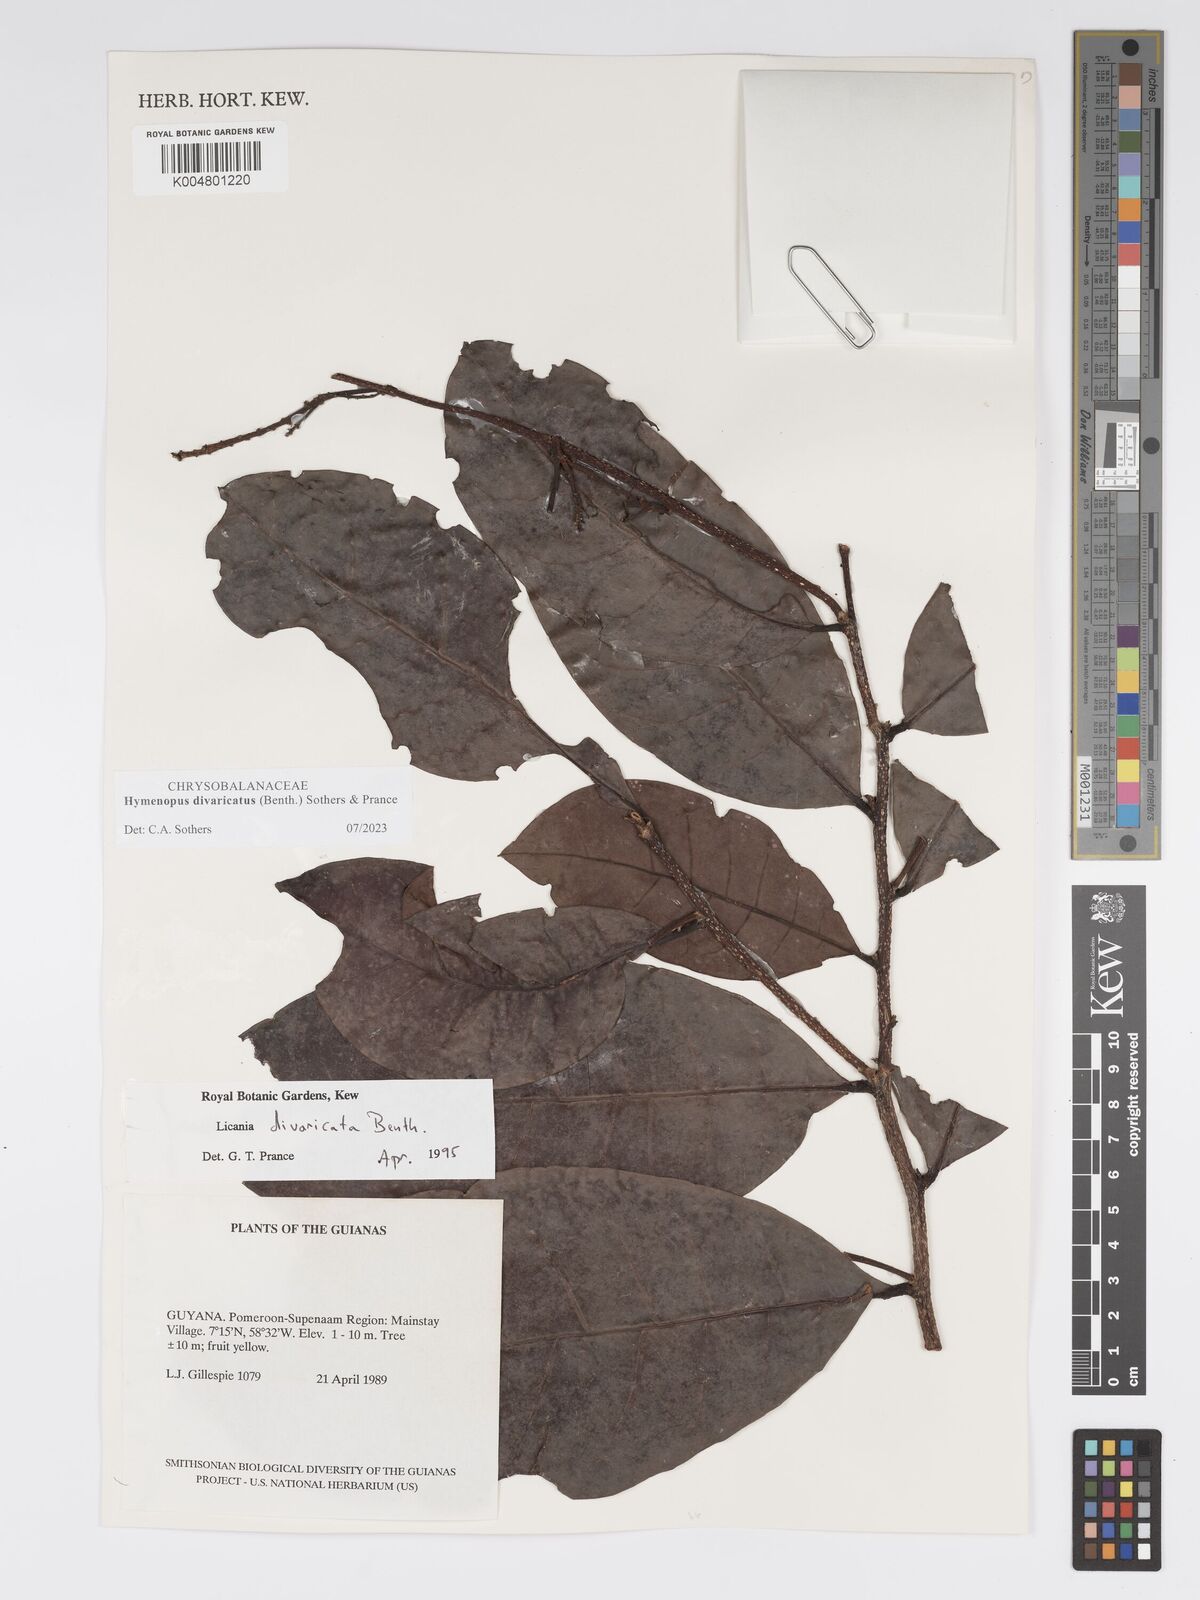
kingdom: Plantae
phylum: Tracheophyta
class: Magnoliopsida
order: Malpighiales
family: Chrysobalanaceae
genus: Hymenopus
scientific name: Hymenopus divaricatus
